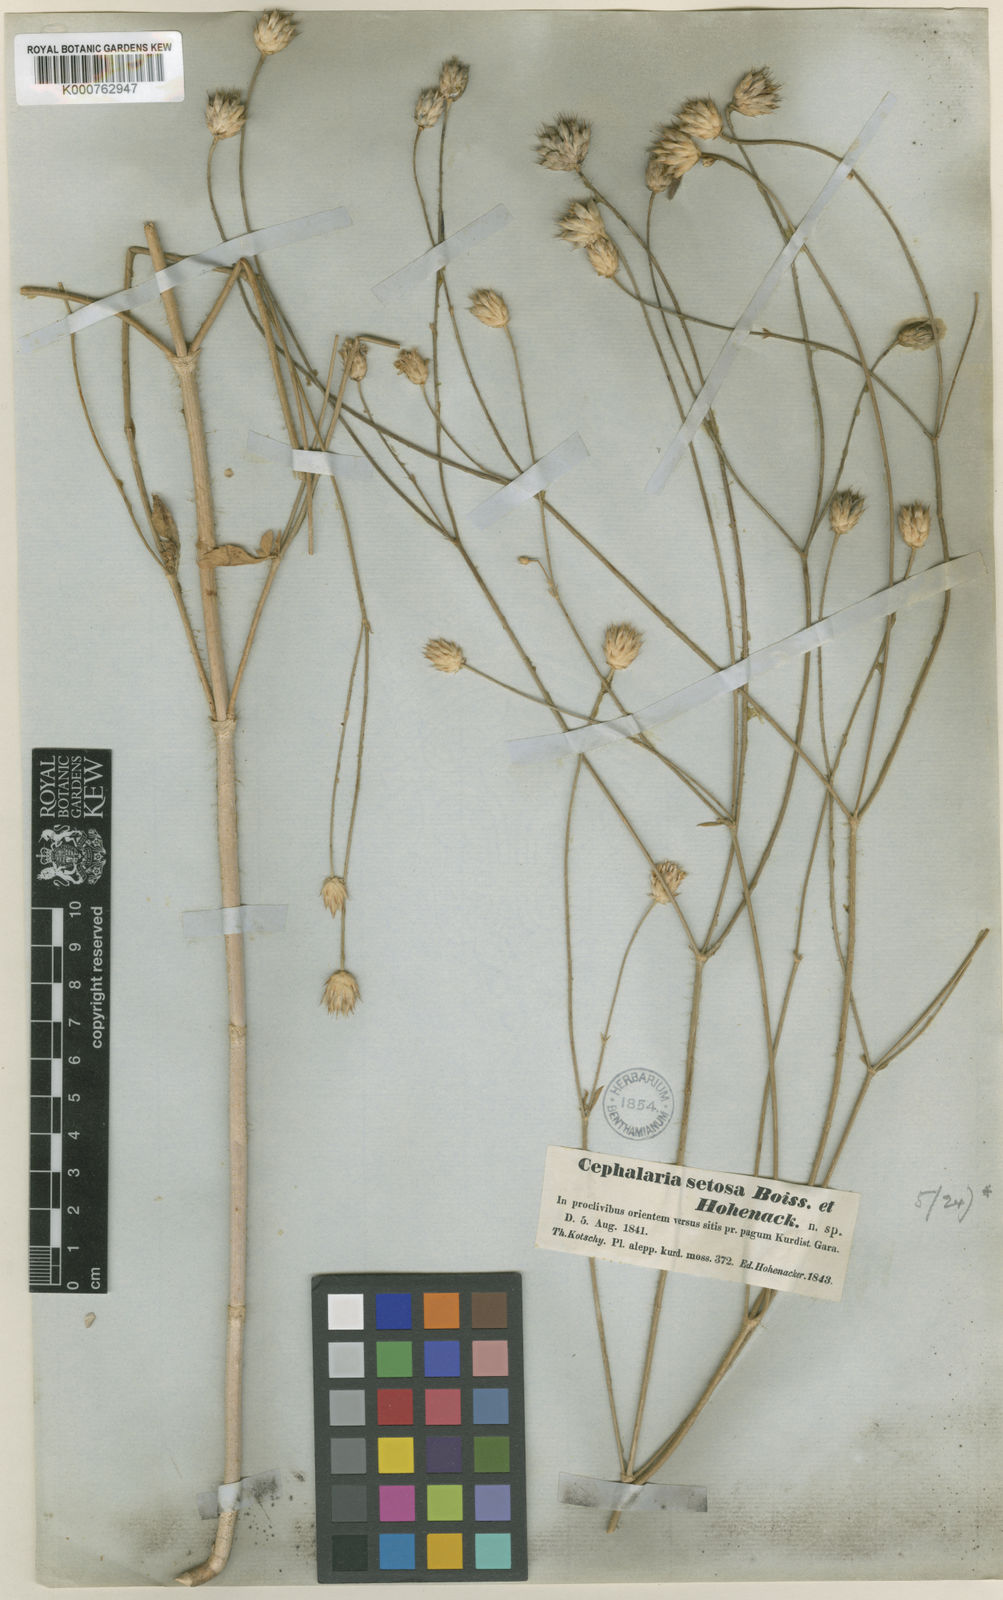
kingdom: Plantae
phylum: Tracheophyta
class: Magnoliopsida
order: Dipsacales
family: Caprifoliaceae
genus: Cephalaria
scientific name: Cephalaria setosa
